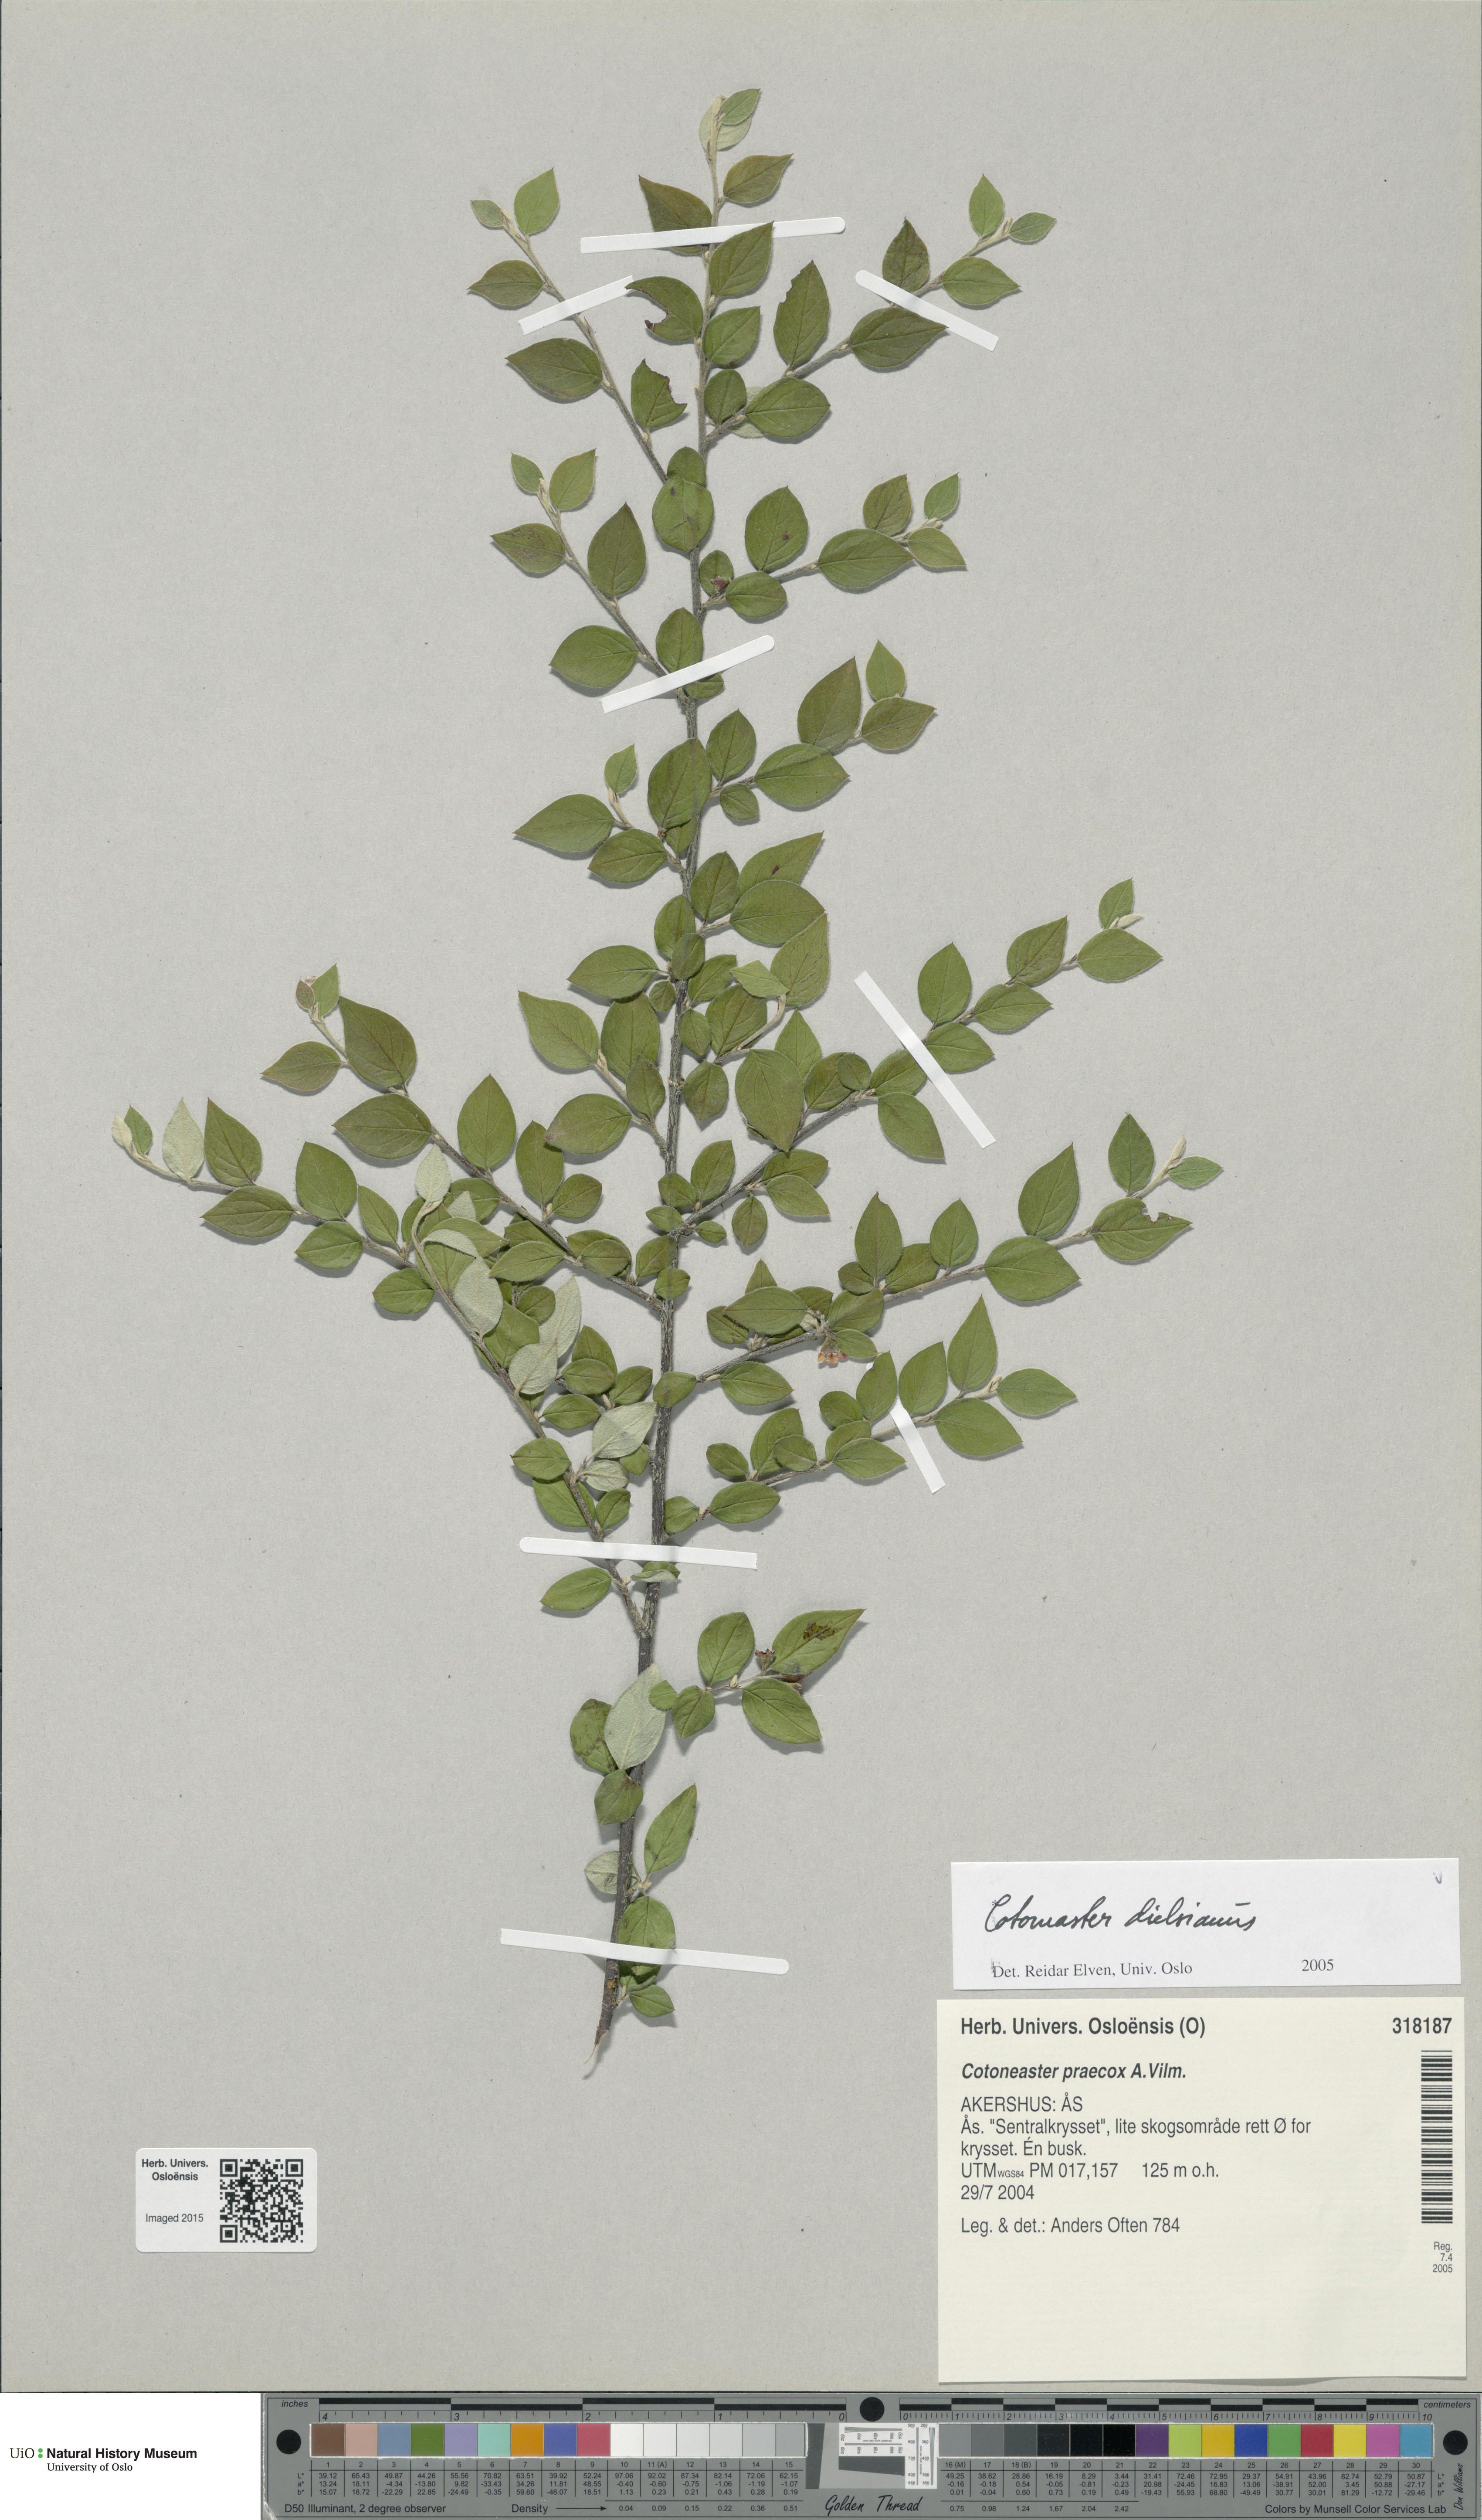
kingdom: Plantae
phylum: Tracheophyta
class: Magnoliopsida
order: Rosales
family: Rosaceae
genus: Cotoneaster
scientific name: Cotoneaster dielsianus
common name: Diels's cotoneaster
